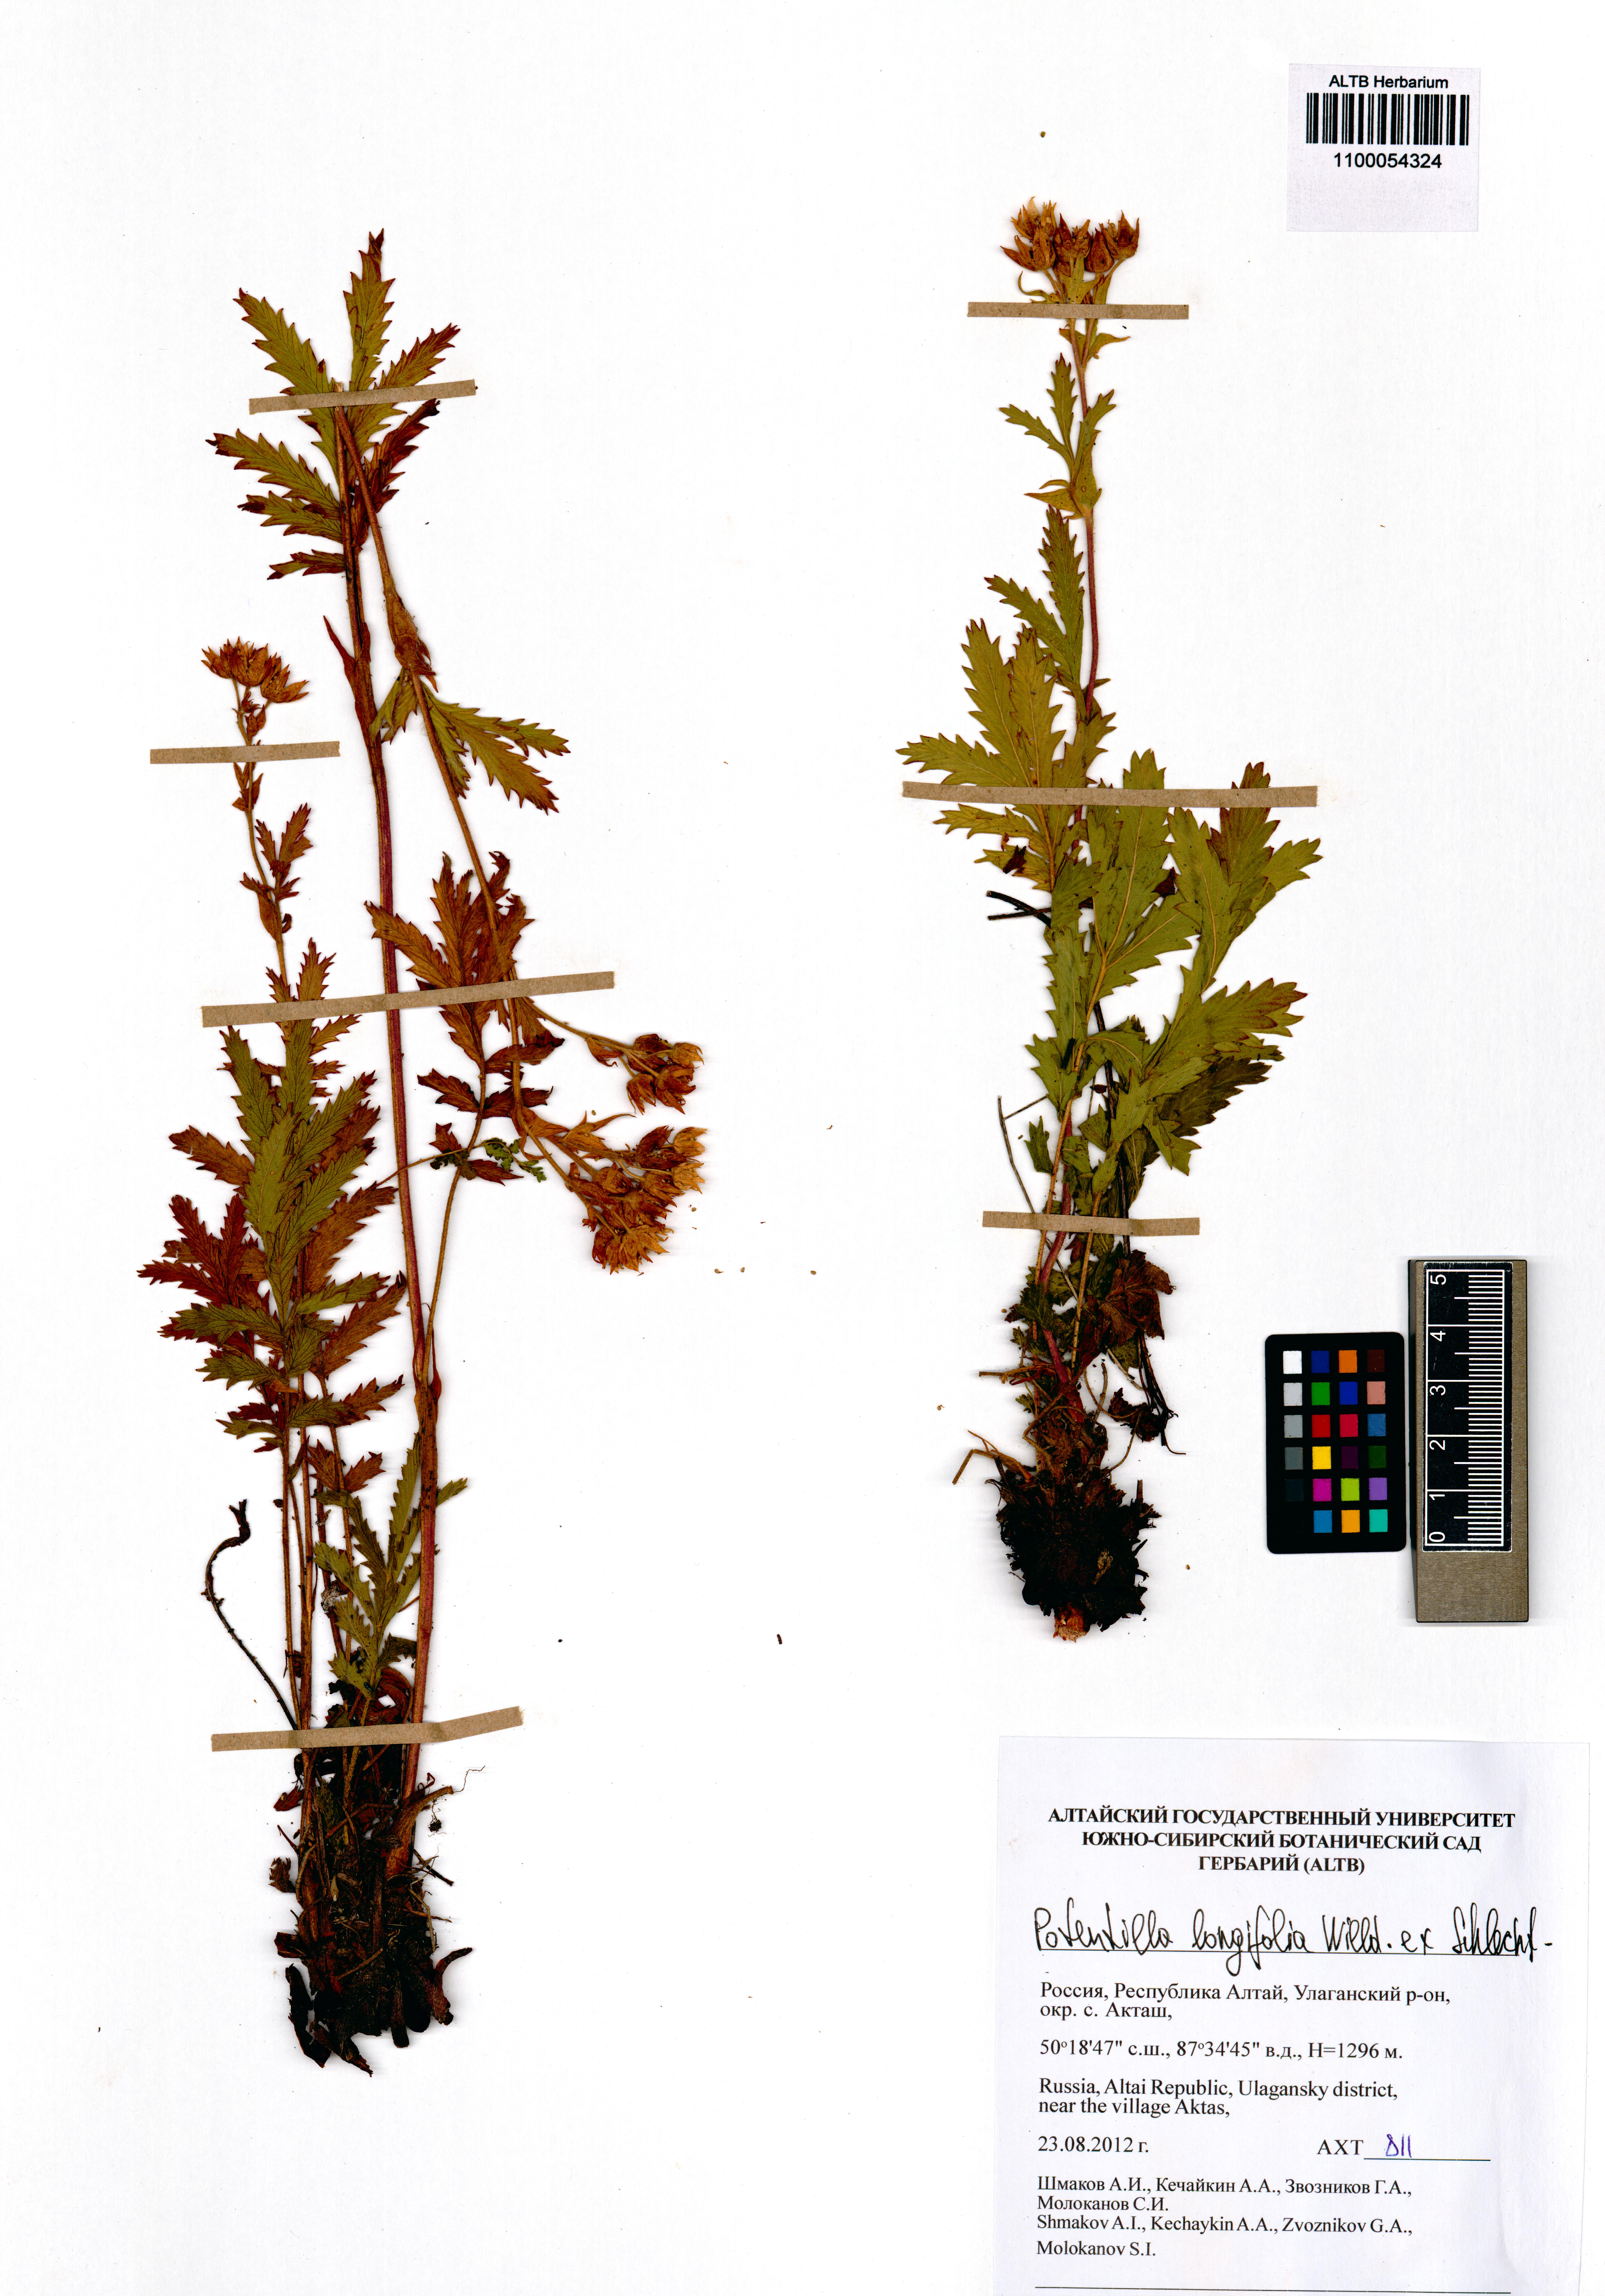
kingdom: Plantae
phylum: Tracheophyta
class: Magnoliopsida
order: Rosales
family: Rosaceae
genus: Potentilla
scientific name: Potentilla longifolia
